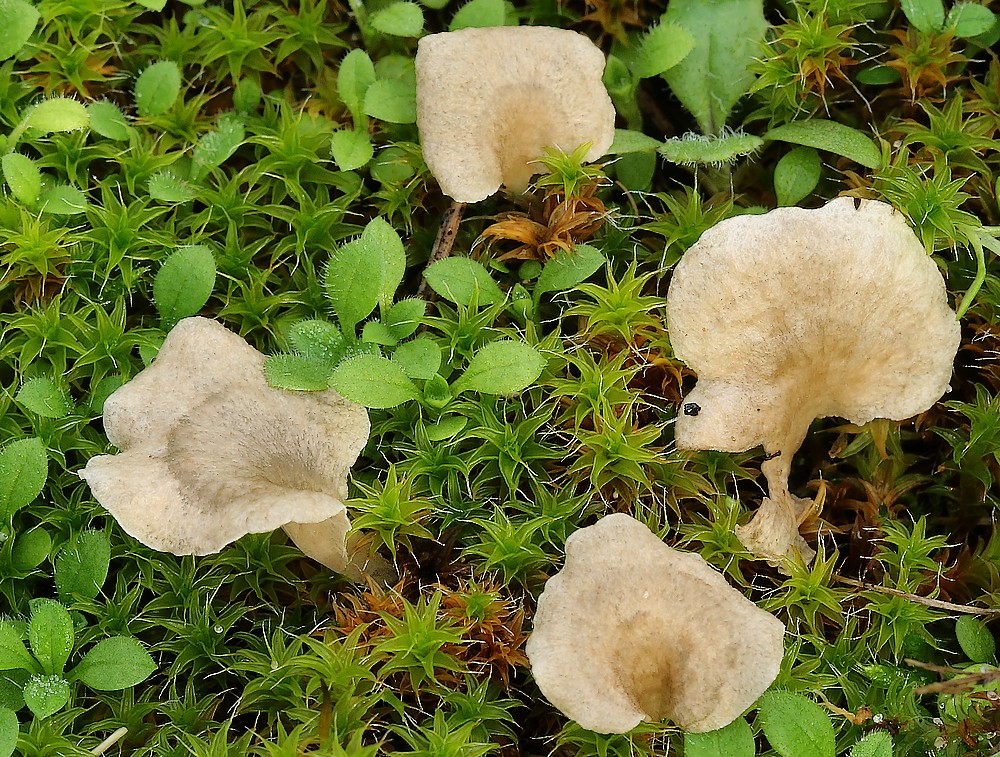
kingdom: Fungi
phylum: Basidiomycota
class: Agaricomycetes
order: Agaricales
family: Hygrophoraceae
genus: Arrhenia
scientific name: Arrhenia spathulata
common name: skæv fontænehat
